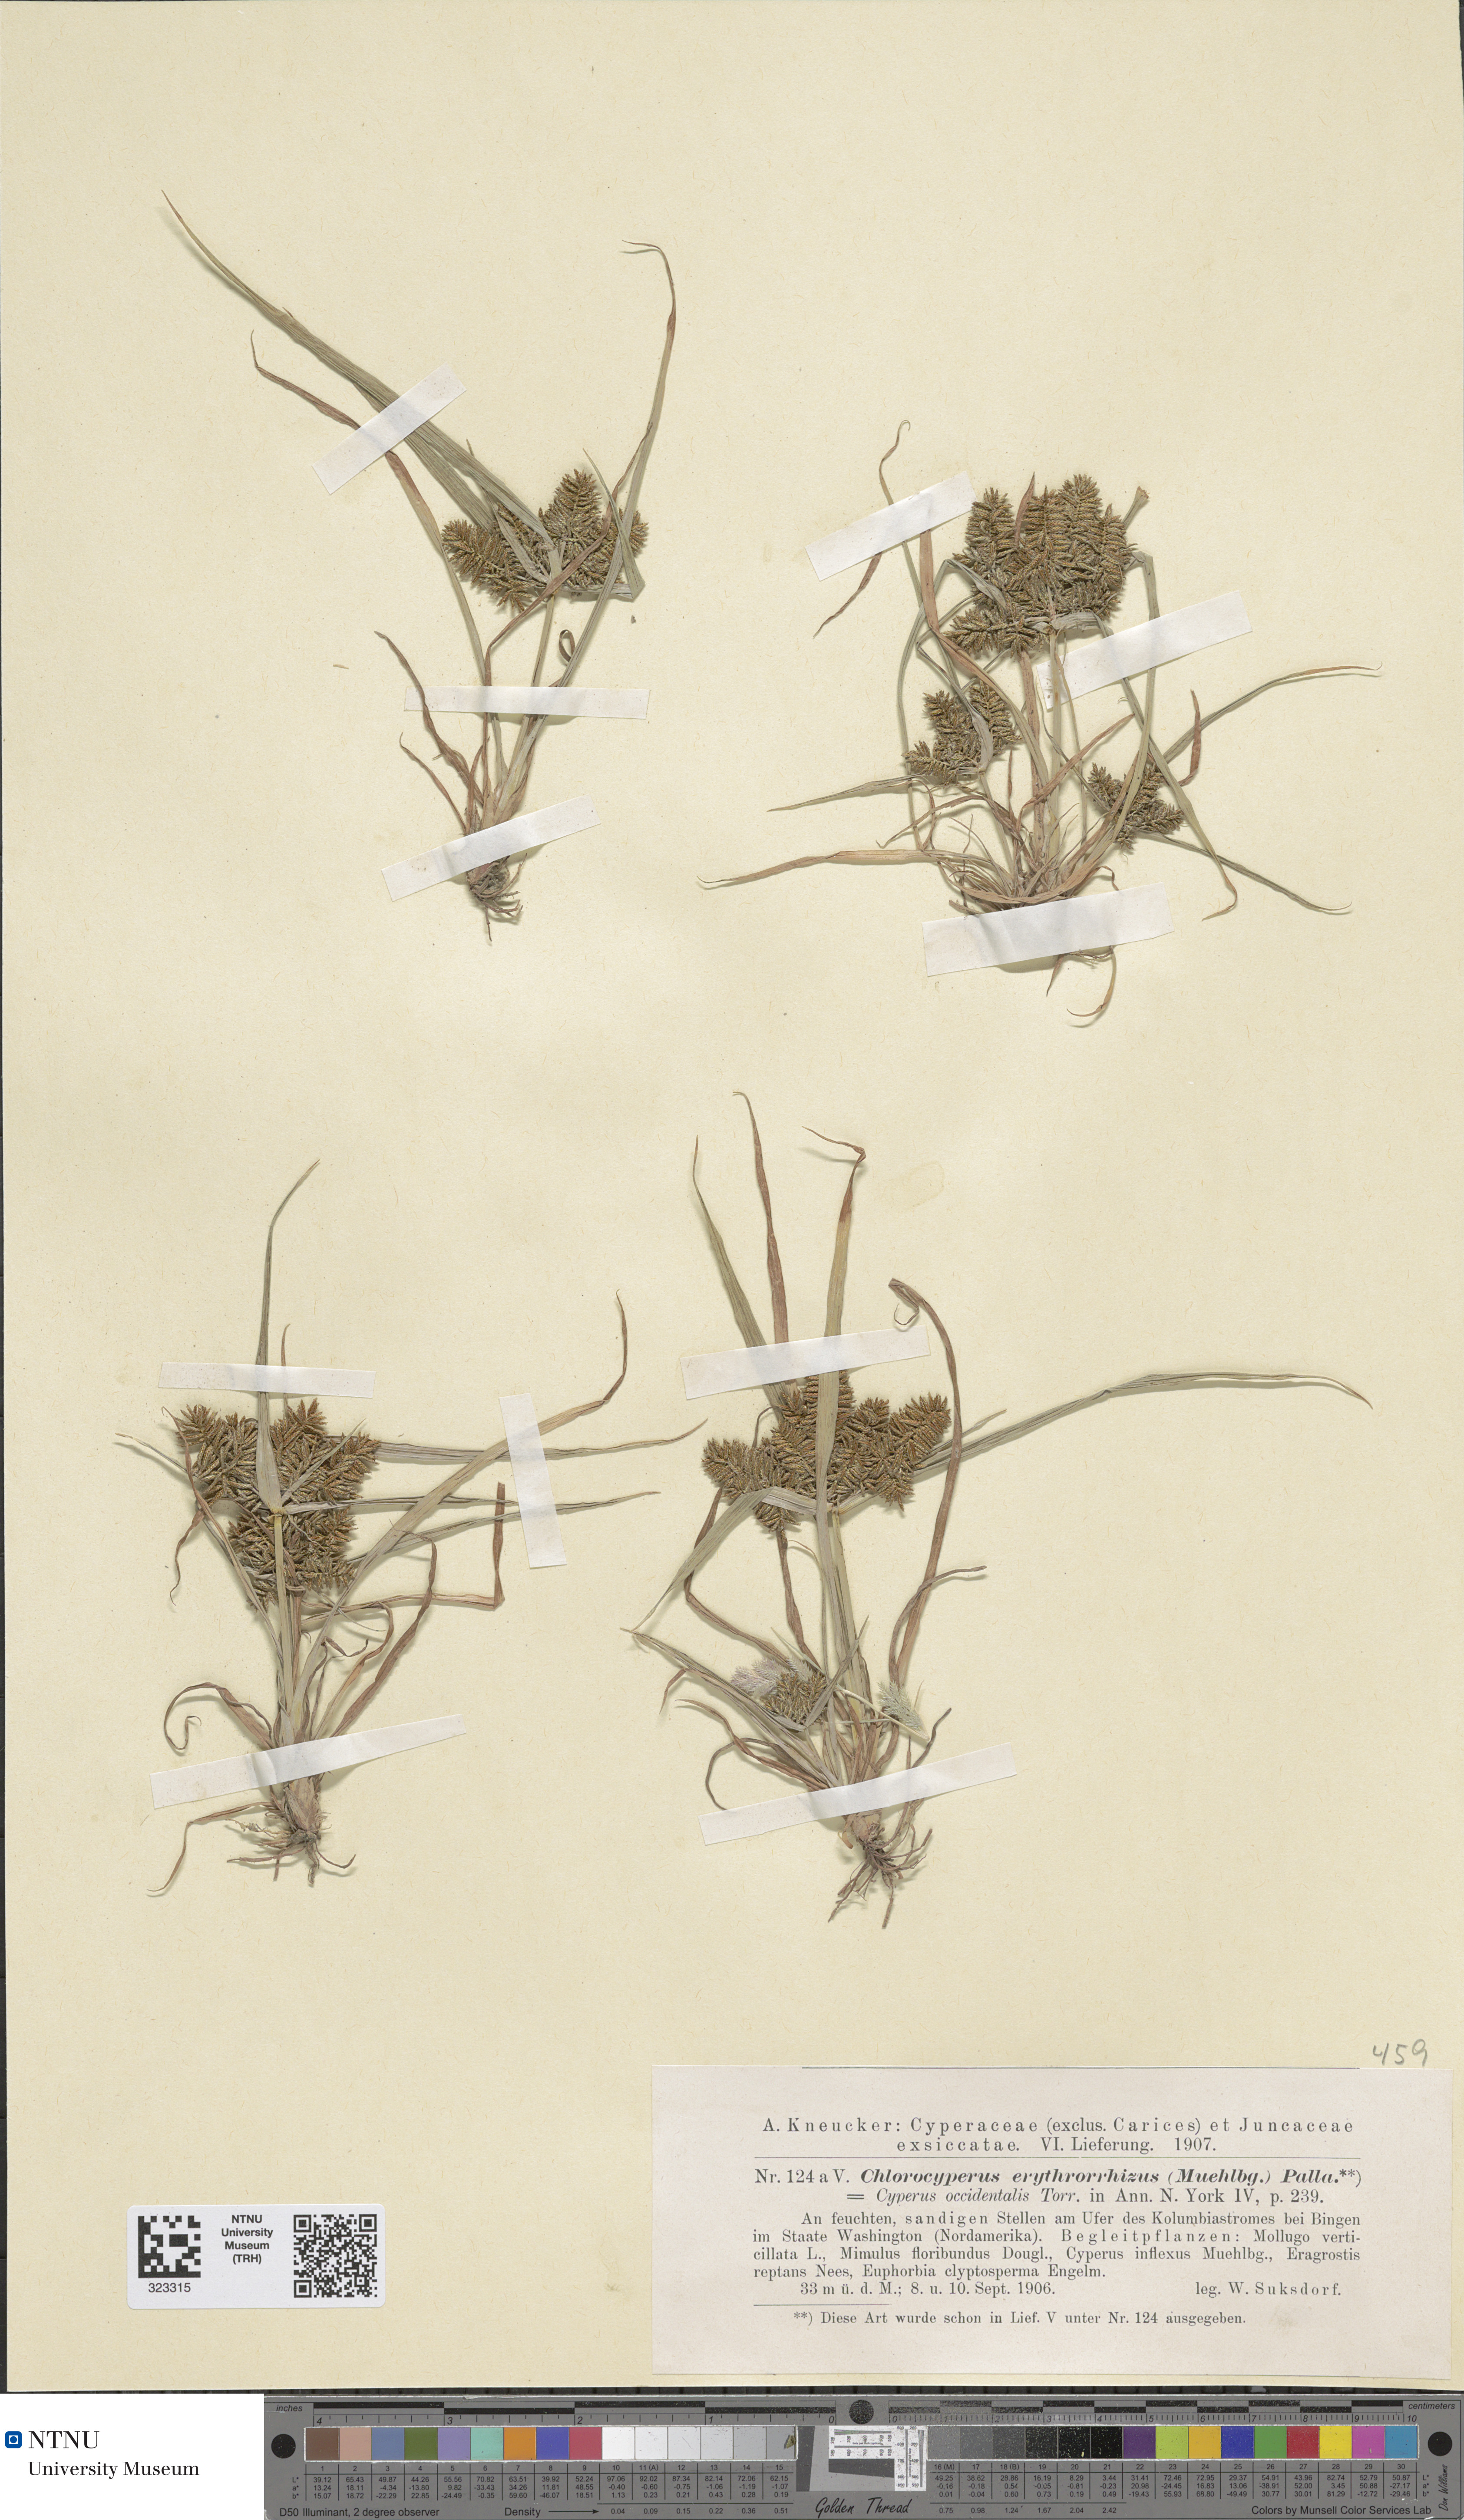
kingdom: Plantae
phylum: Tracheophyta
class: Liliopsida
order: Poales
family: Cyperaceae
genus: Cyperus
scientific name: Cyperus erythrorhizos
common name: Red-root flat sedge
